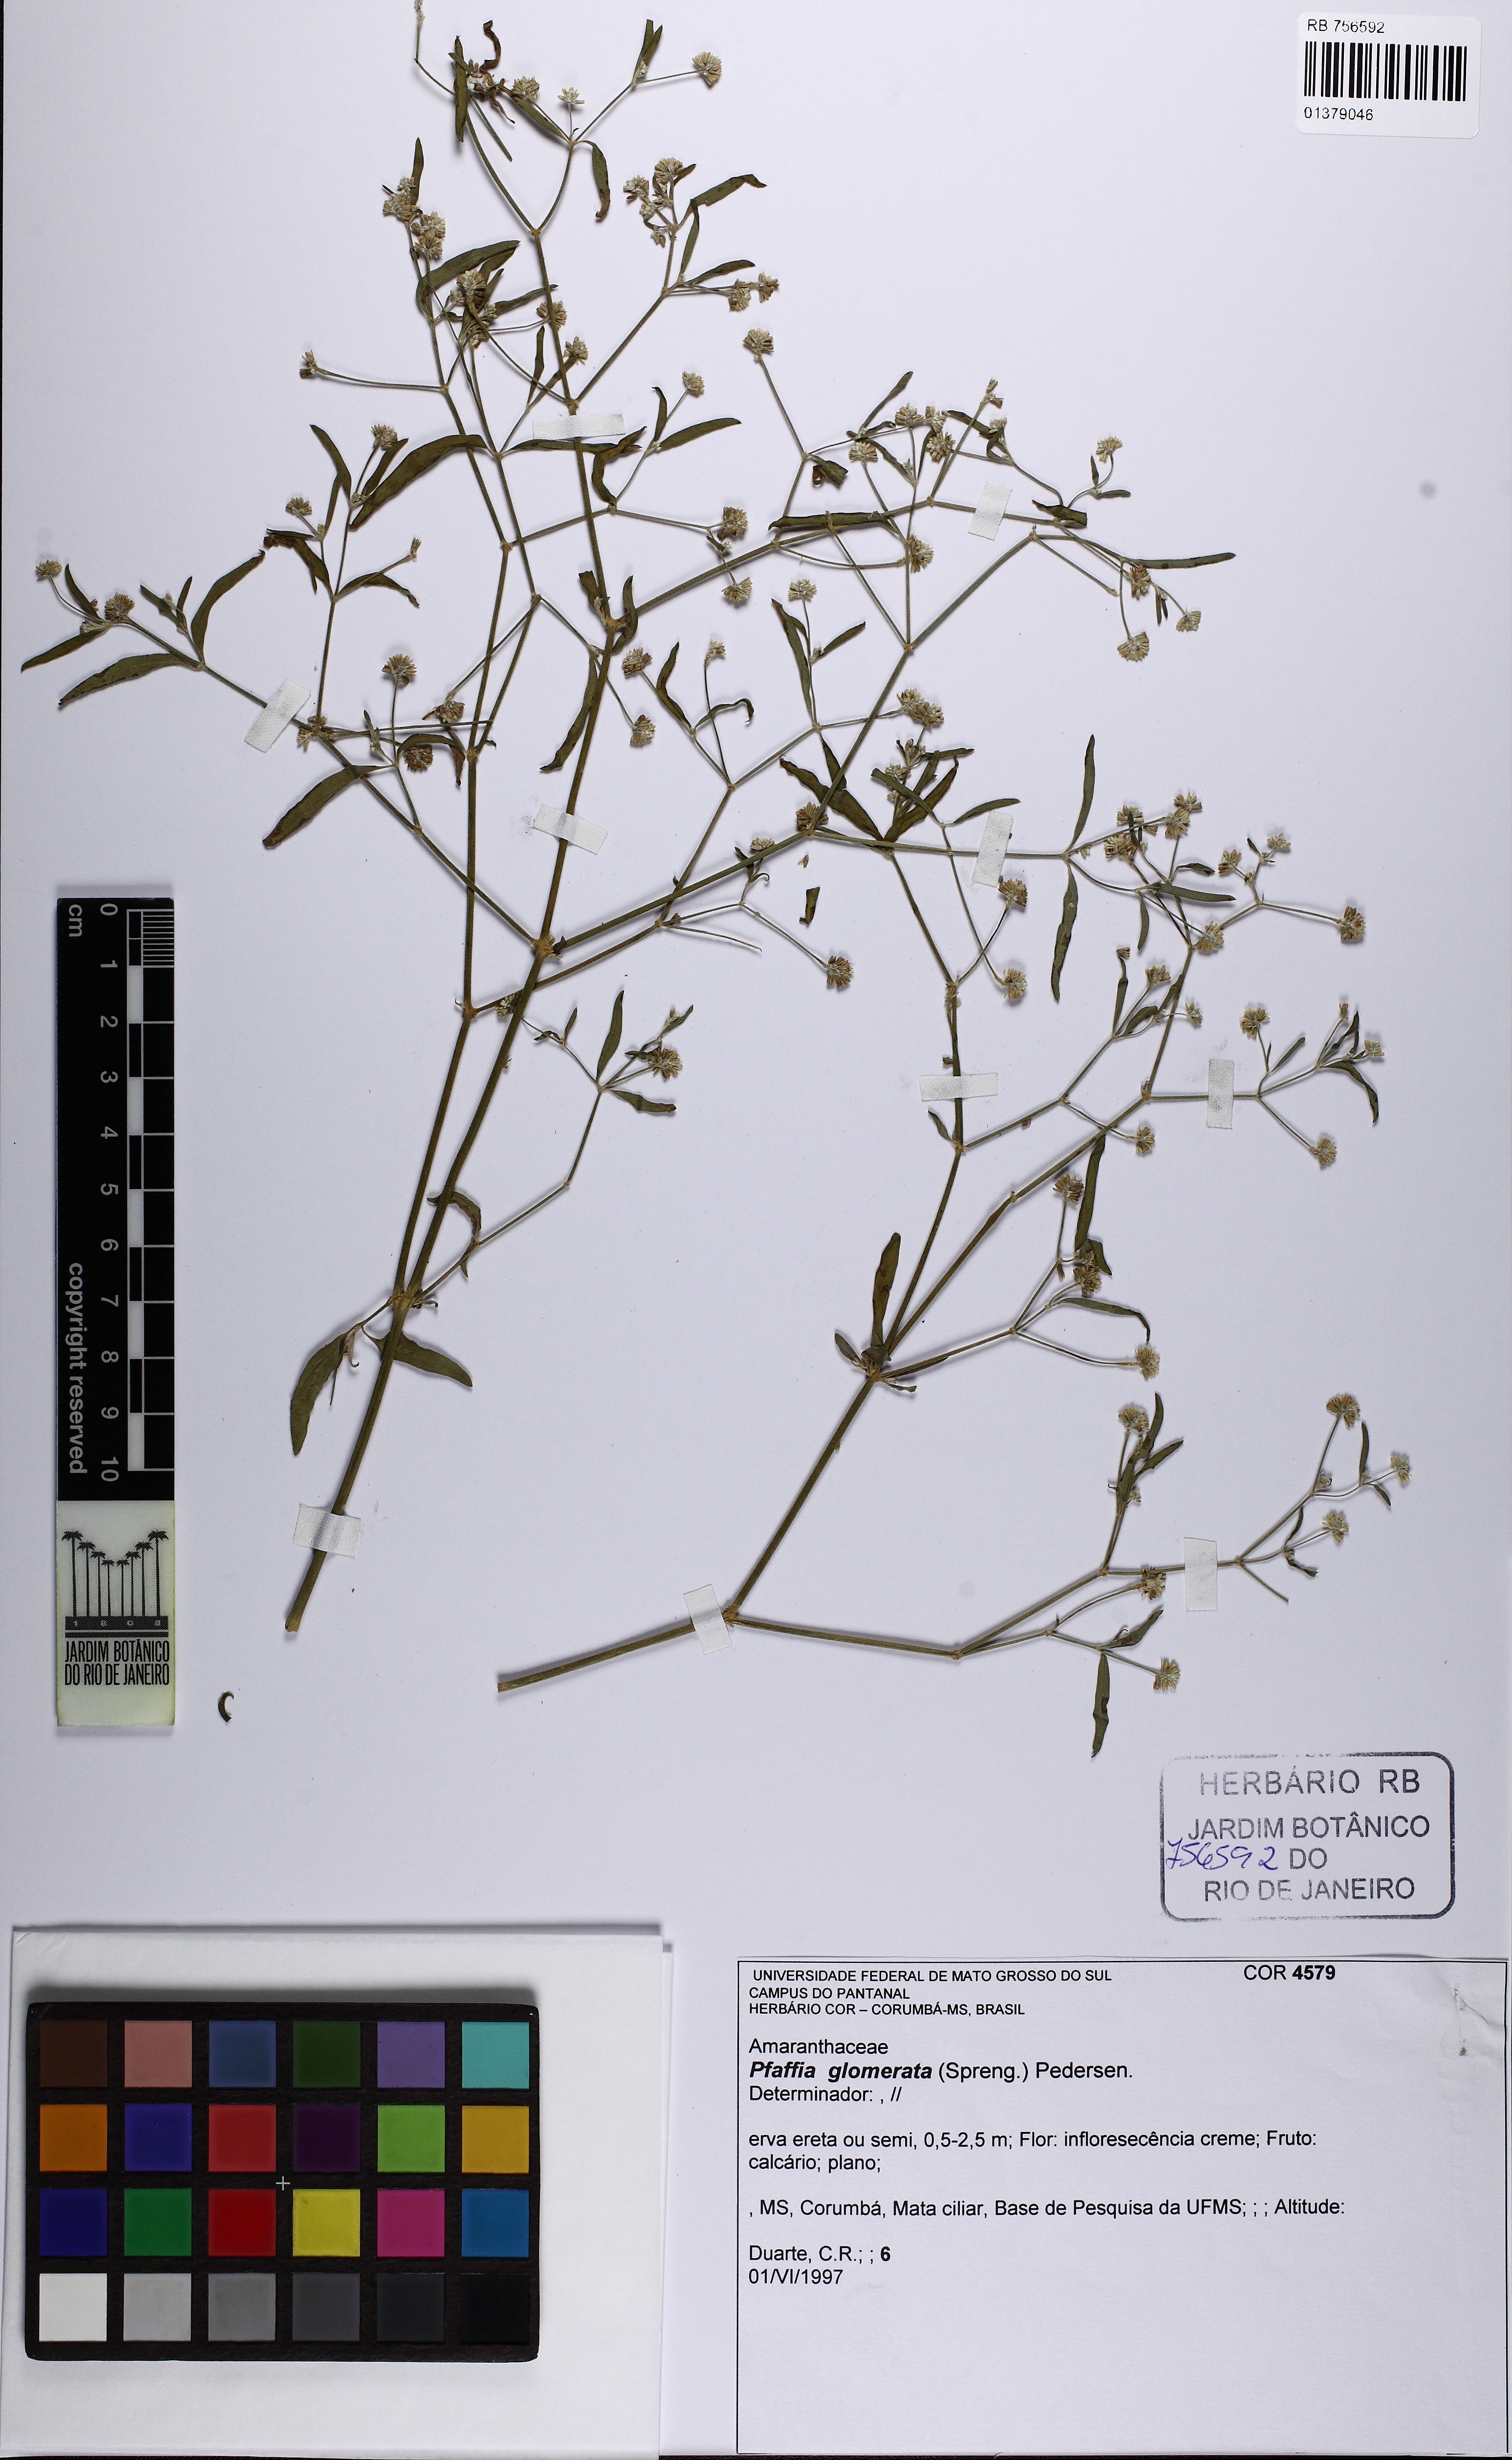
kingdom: Plantae
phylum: Tracheophyta
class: Magnoliopsida
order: Caryophyllales
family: Amaranthaceae
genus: Pfaffia
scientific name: Pfaffia glomerata
